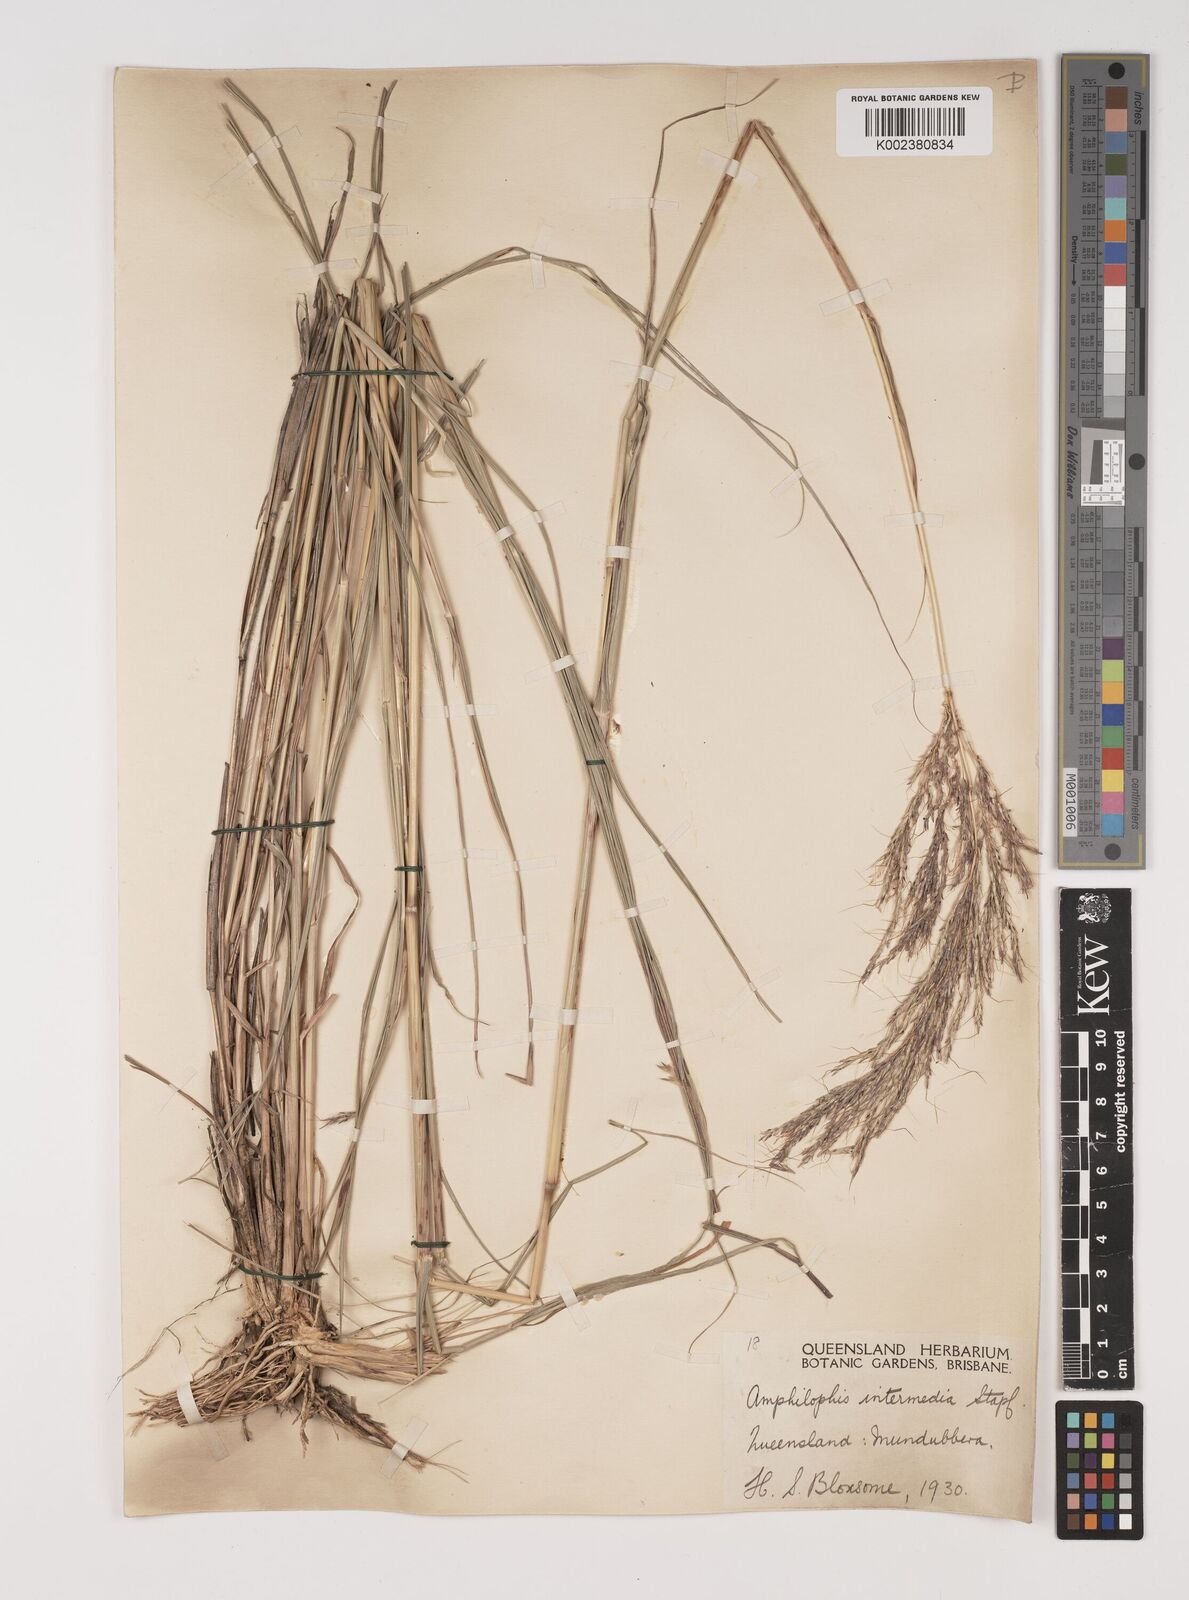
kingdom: Plantae
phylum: Tracheophyta
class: Liliopsida
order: Poales
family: Poaceae
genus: Bothriochloa
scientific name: Bothriochloa bladhii
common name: Caucasian bluestem
